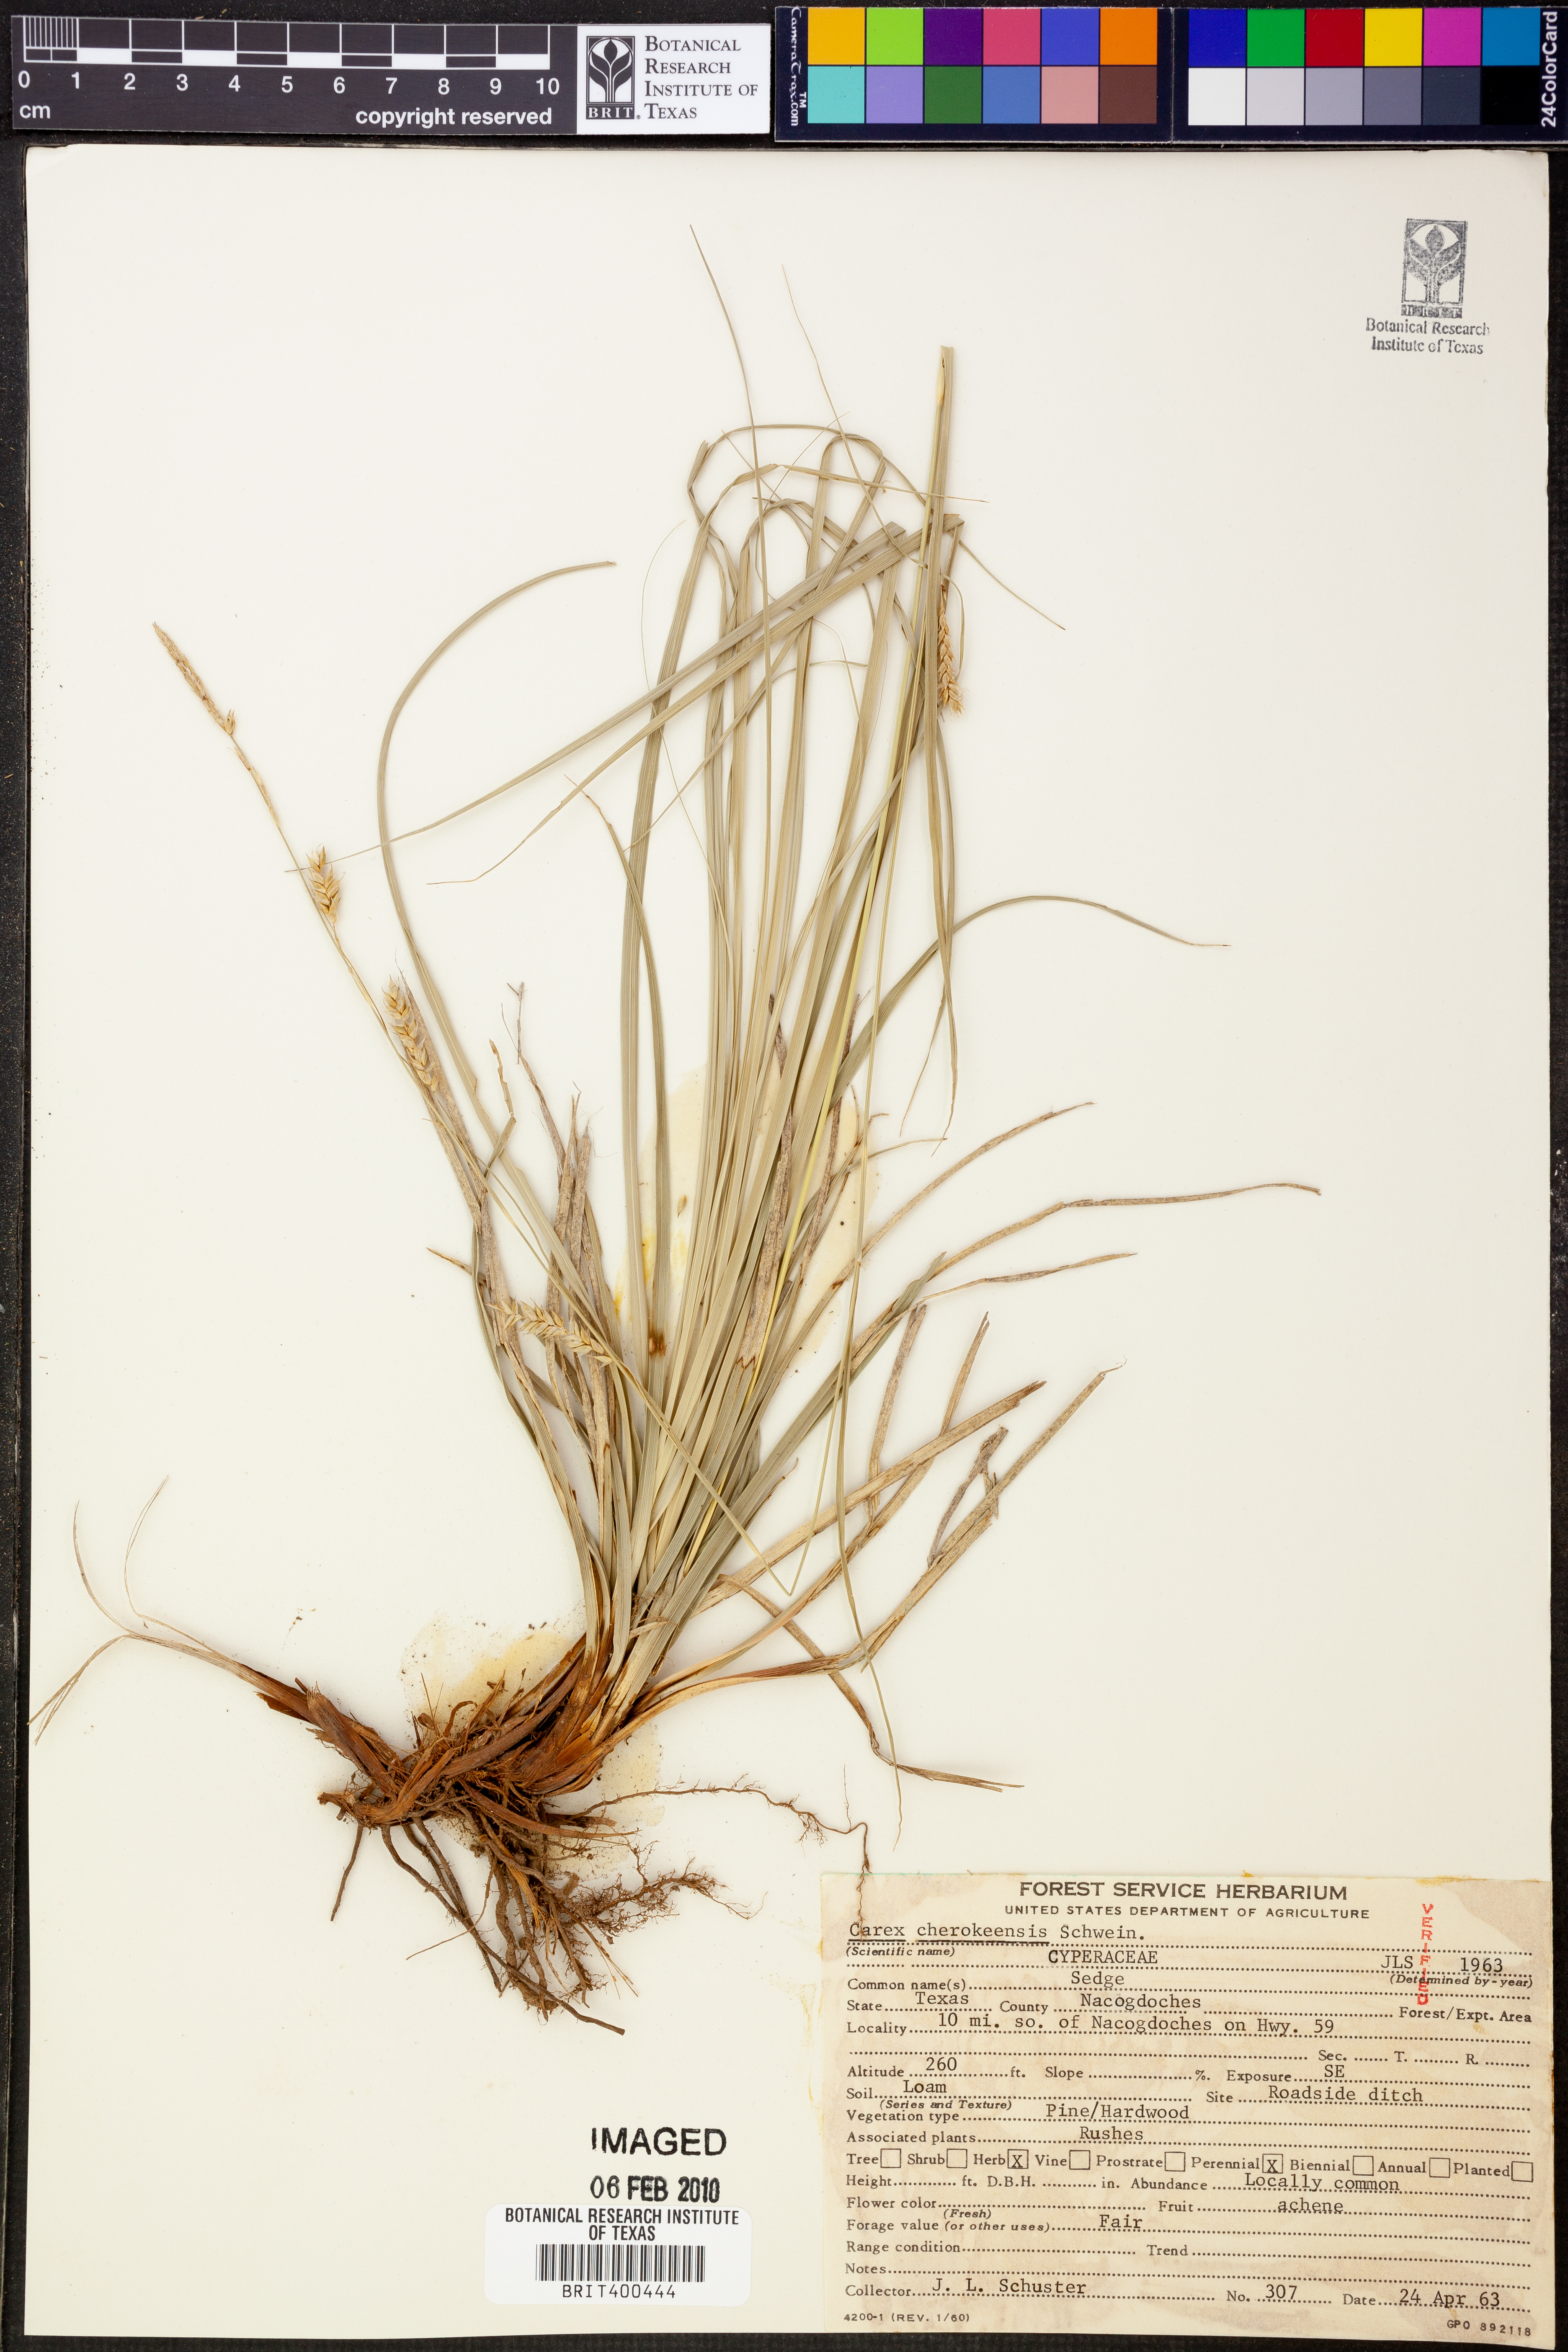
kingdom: Plantae
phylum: Tracheophyta
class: Liliopsida
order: Poales
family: Cyperaceae
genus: Carex
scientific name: Carex cherokeensis
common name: Cherokee sedge
